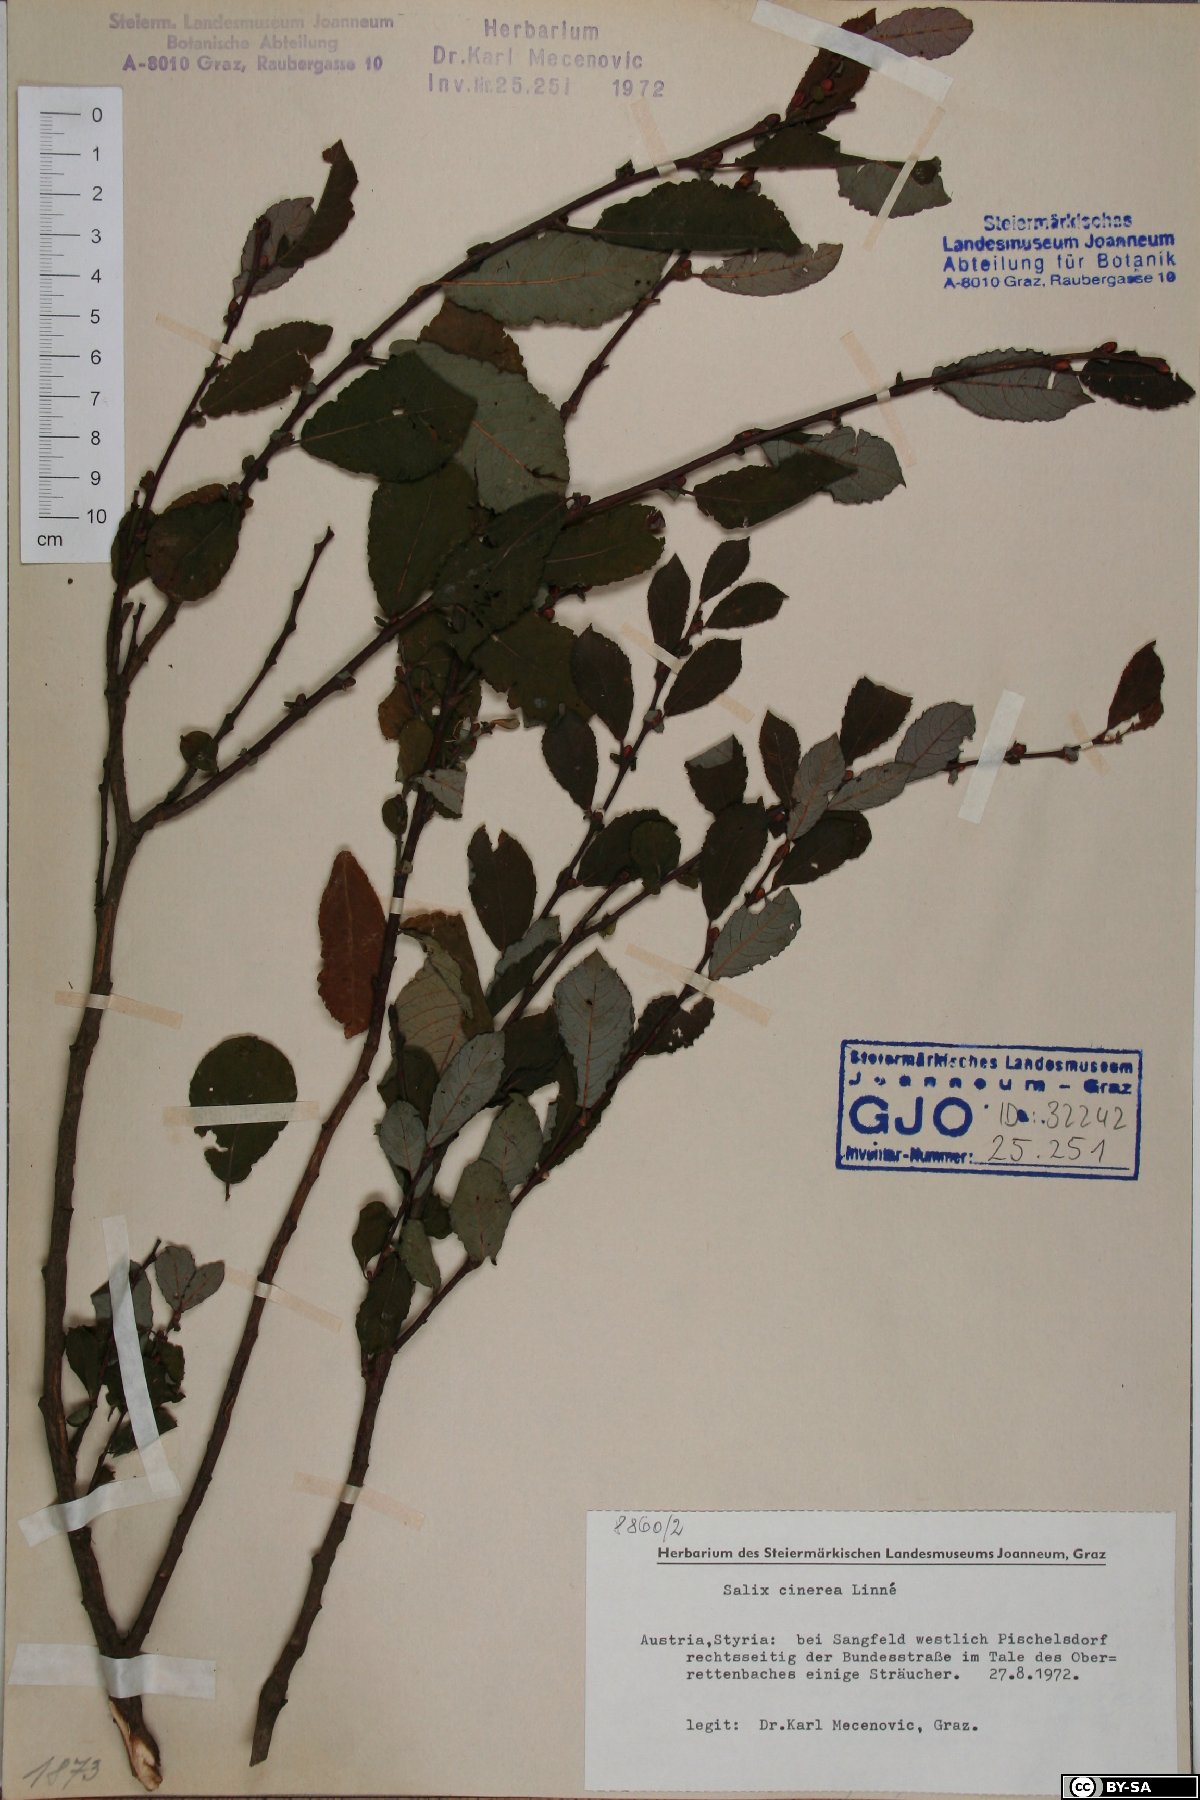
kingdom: Plantae
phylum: Tracheophyta
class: Magnoliopsida
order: Malpighiales
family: Salicaceae
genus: Salix
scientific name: Salix cinerea
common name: Common sallow
